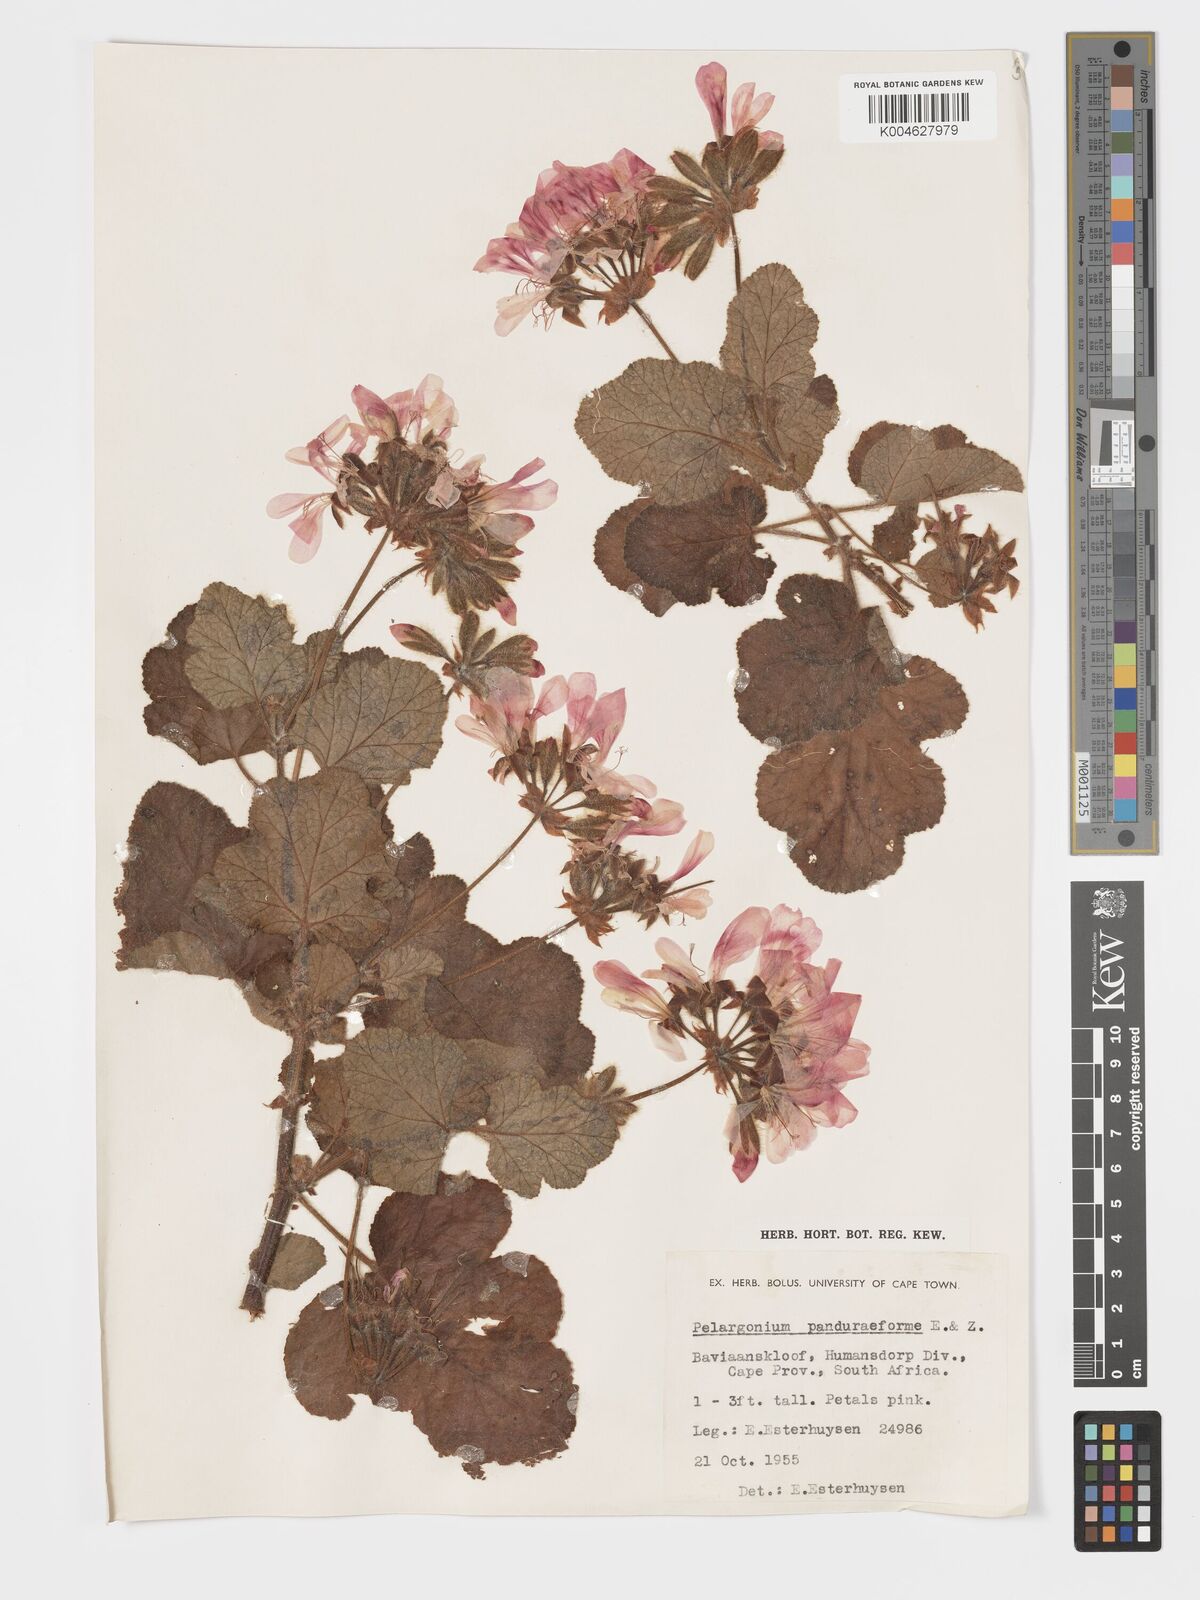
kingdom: Plantae
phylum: Tracheophyta
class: Magnoliopsida
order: Geraniales
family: Geraniaceae
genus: Pelargonium
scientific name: Pelargonium panduriforme
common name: Oakleaf garden geranium
